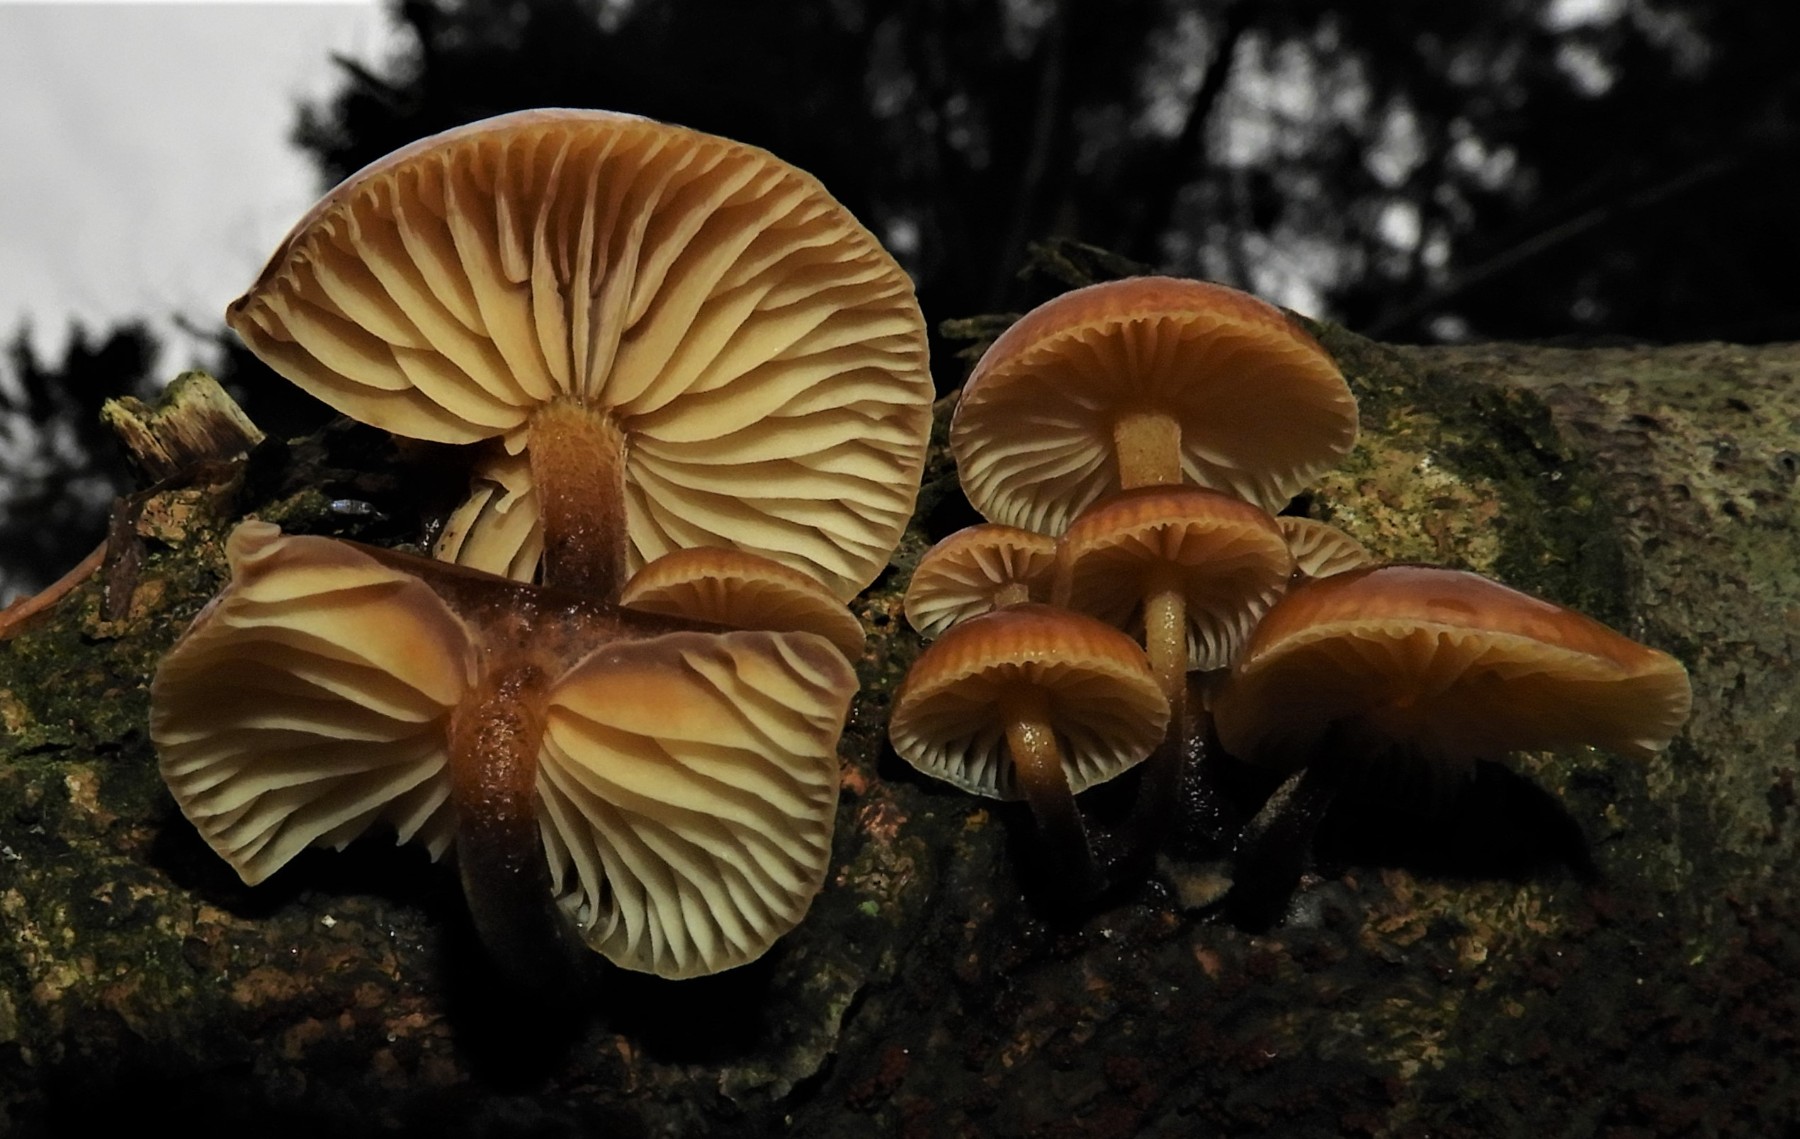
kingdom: Fungi
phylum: Basidiomycota
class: Agaricomycetes
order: Agaricales
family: Physalacriaceae
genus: Flammulina
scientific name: Flammulina velutipes
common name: gul fløjlsfod
